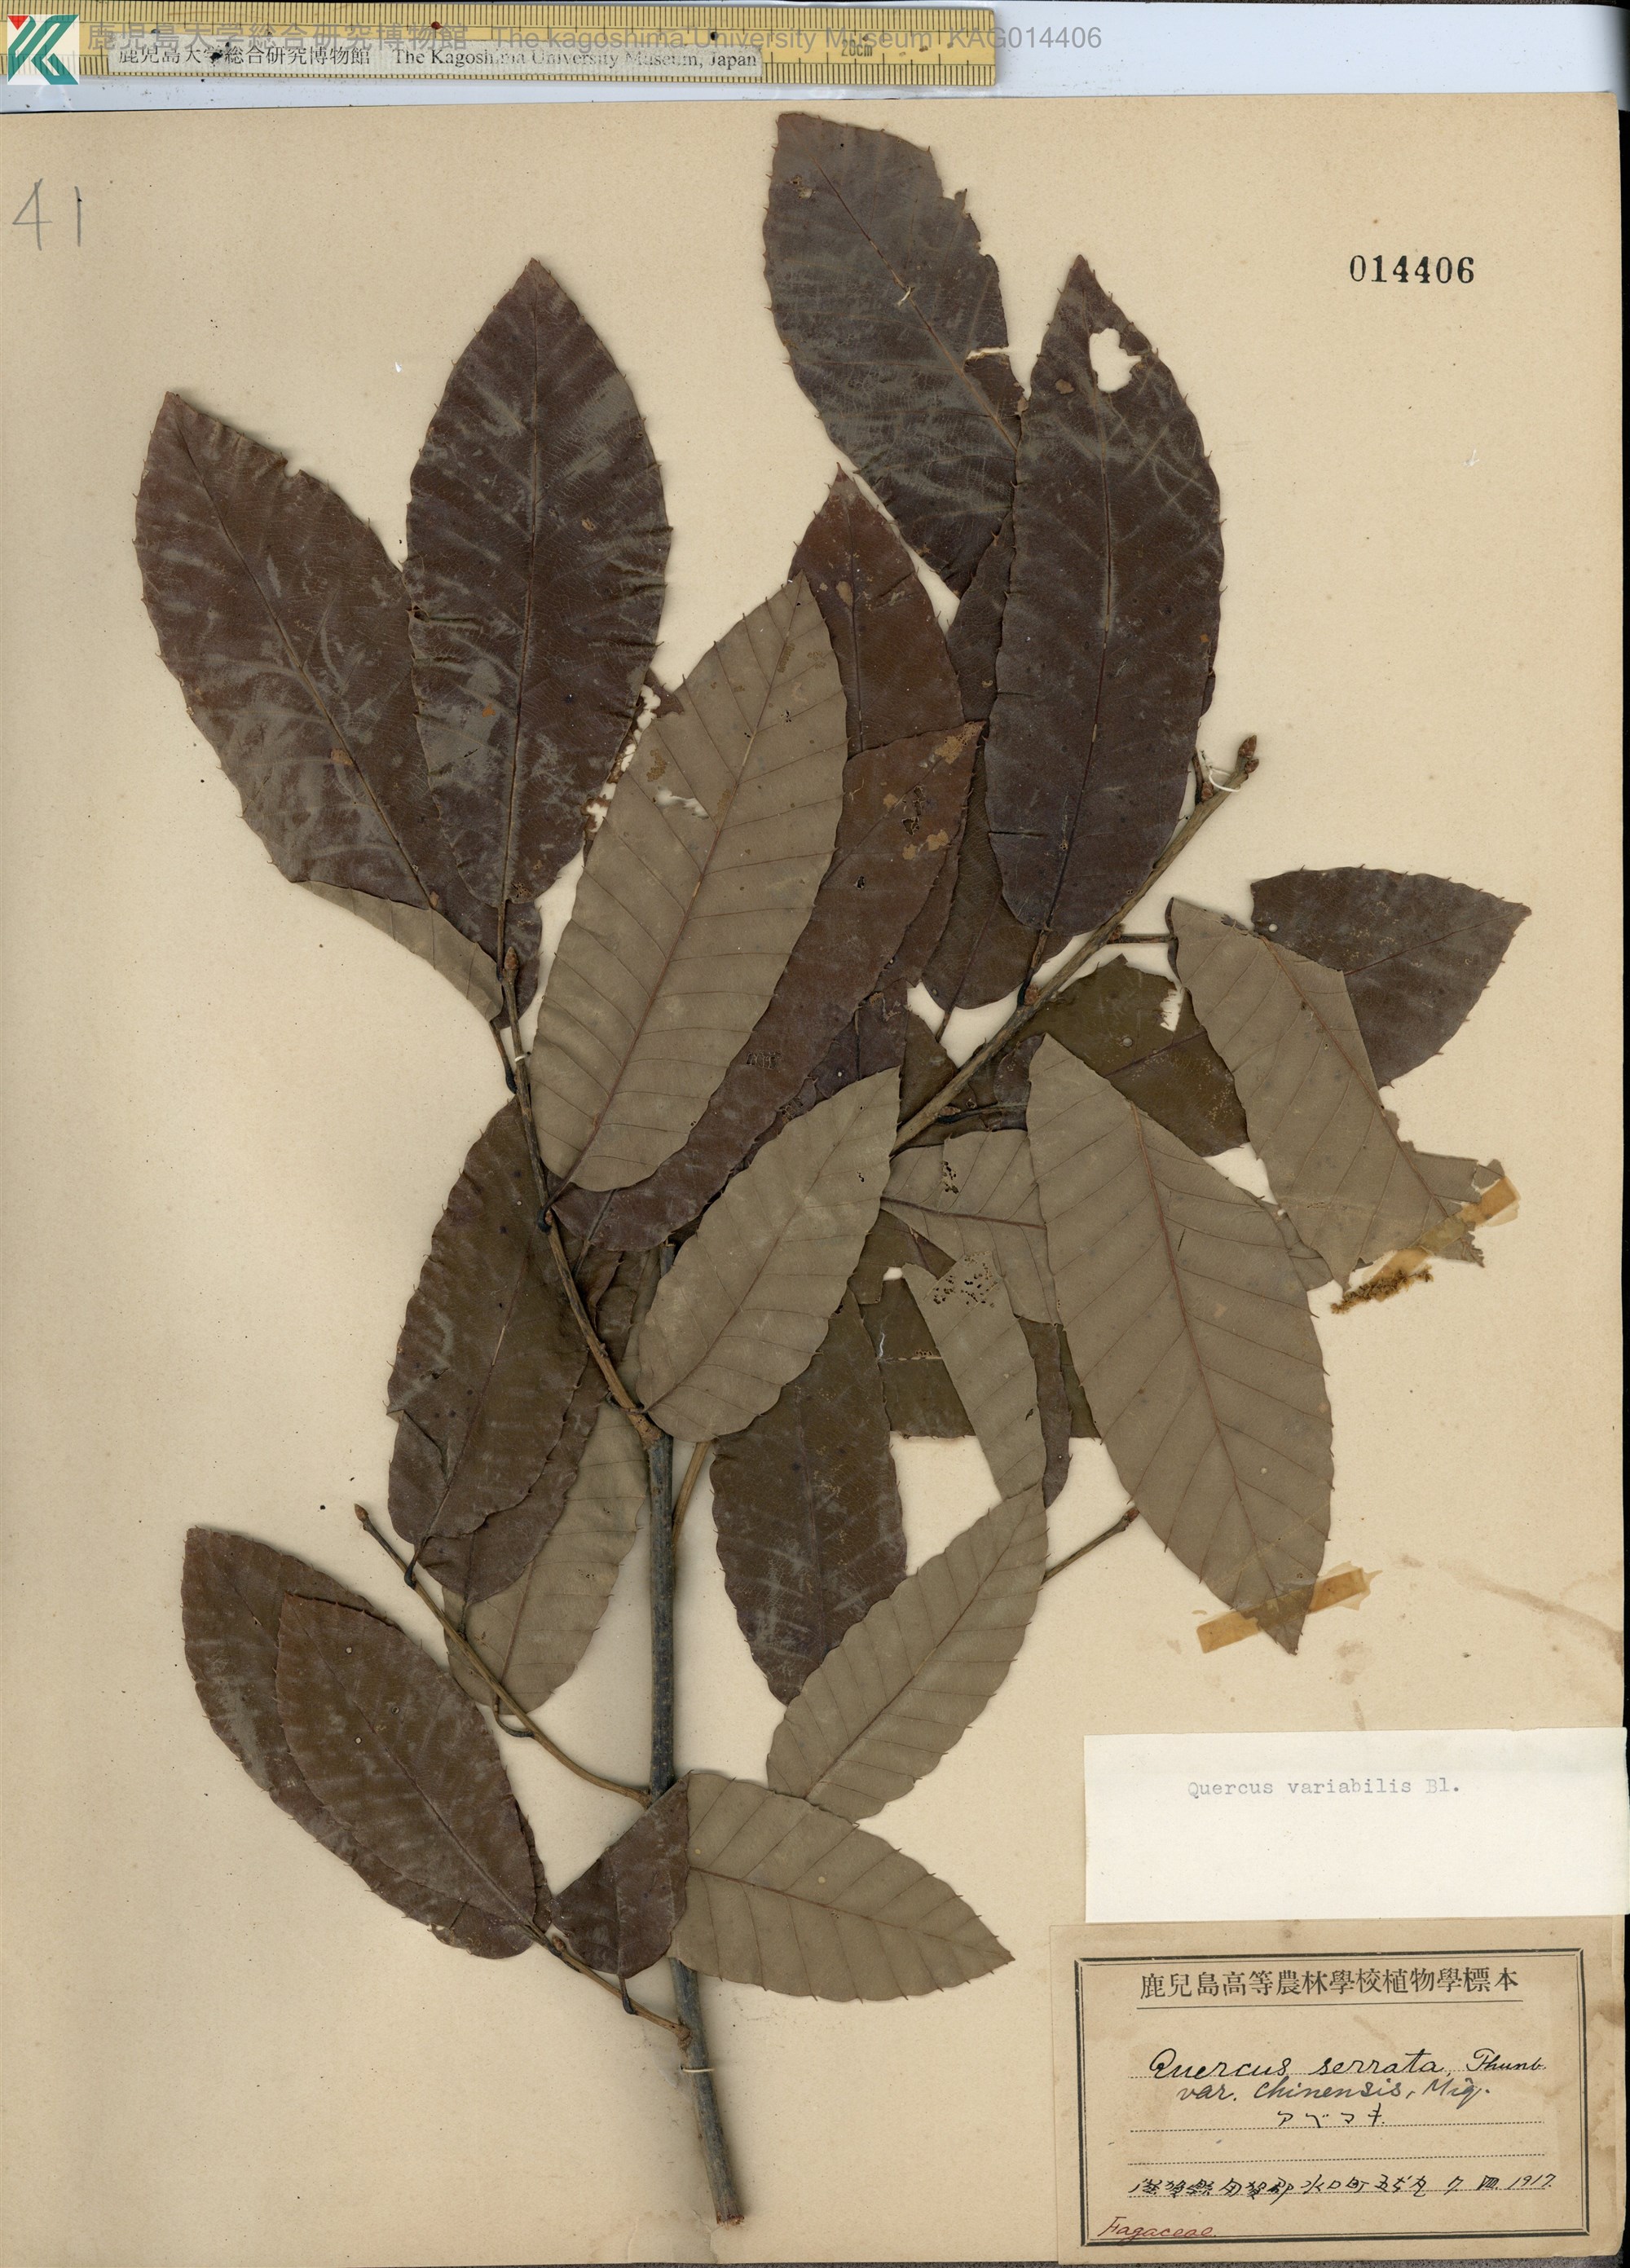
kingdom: Plantae
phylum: Tracheophyta
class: Magnoliopsida
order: Fagales
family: Fagaceae
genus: Quercus
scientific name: Quercus variabilis
